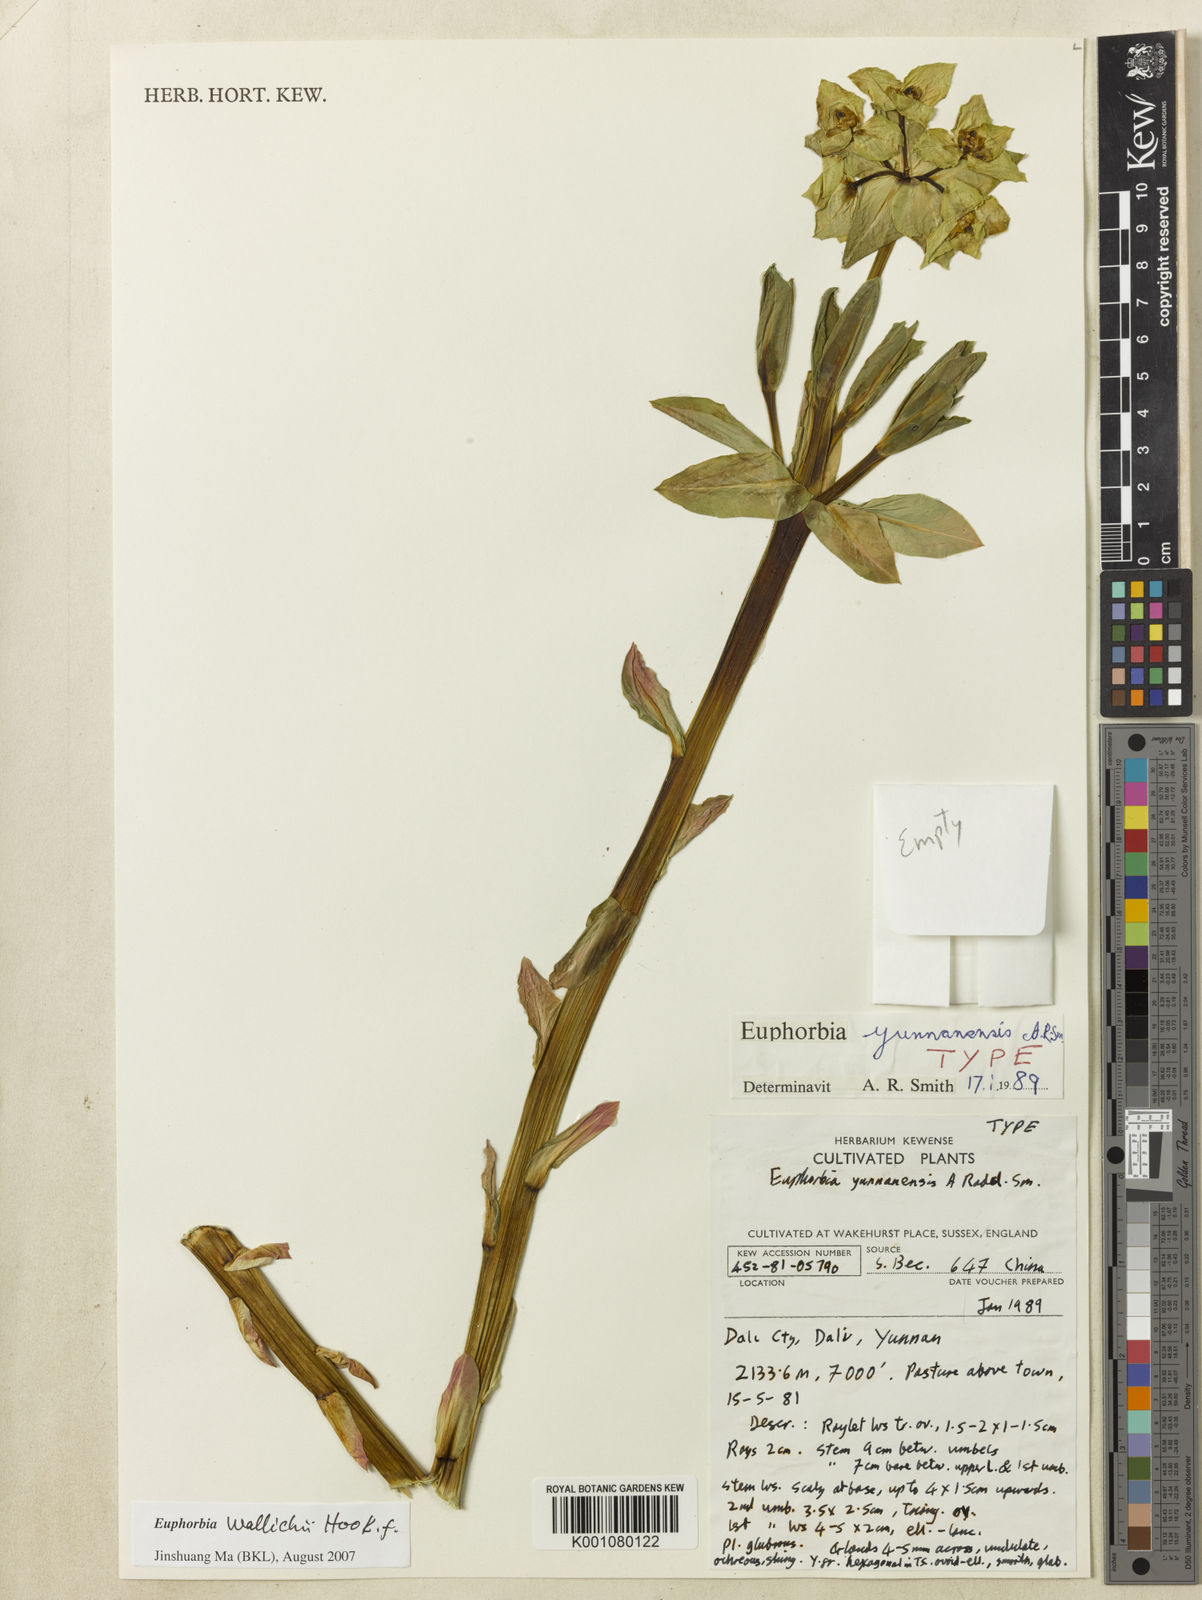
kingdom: Plantae
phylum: Tracheophyta
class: Magnoliopsida
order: Malpighiales
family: Euphorbiaceae
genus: Euphorbia
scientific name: Euphorbia
